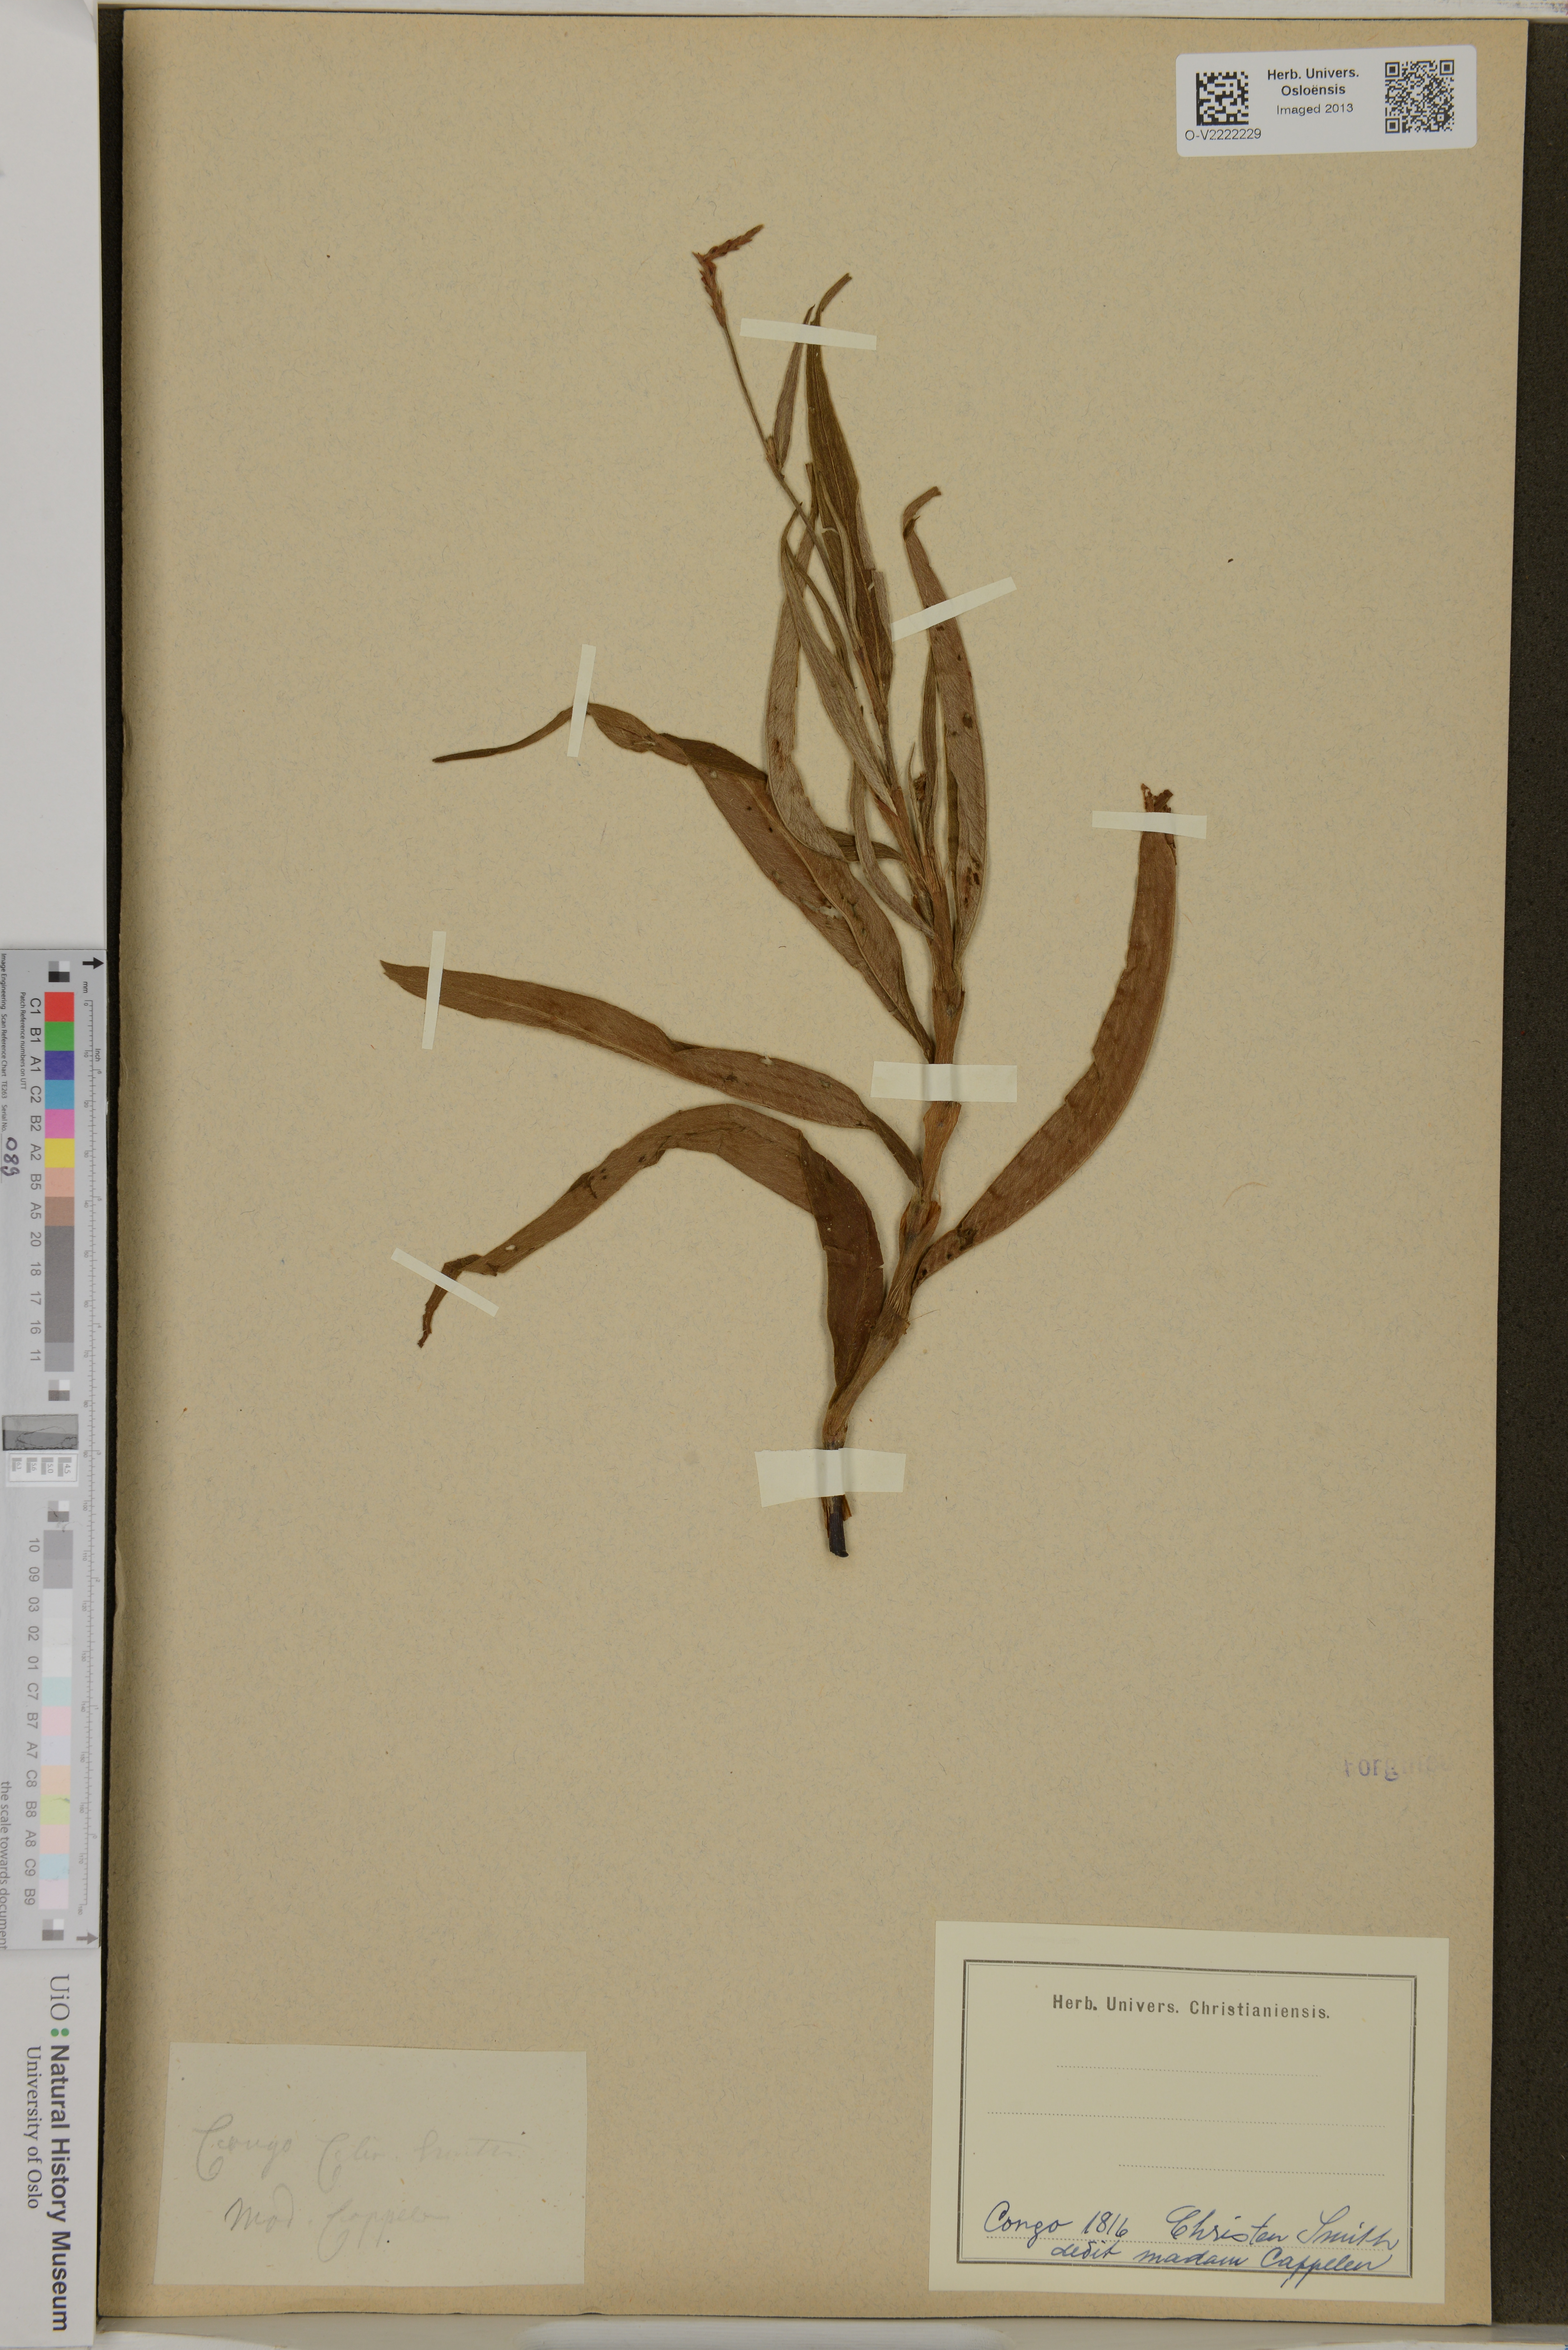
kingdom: Plantae
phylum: Tracheophyta
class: Magnoliopsida
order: Caryophyllales
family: Polygonaceae
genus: Polygonum
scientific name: Polygonum
